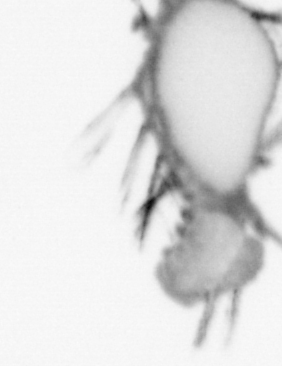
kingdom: Animalia
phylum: Annelida
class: Polychaeta
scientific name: Polychaeta
